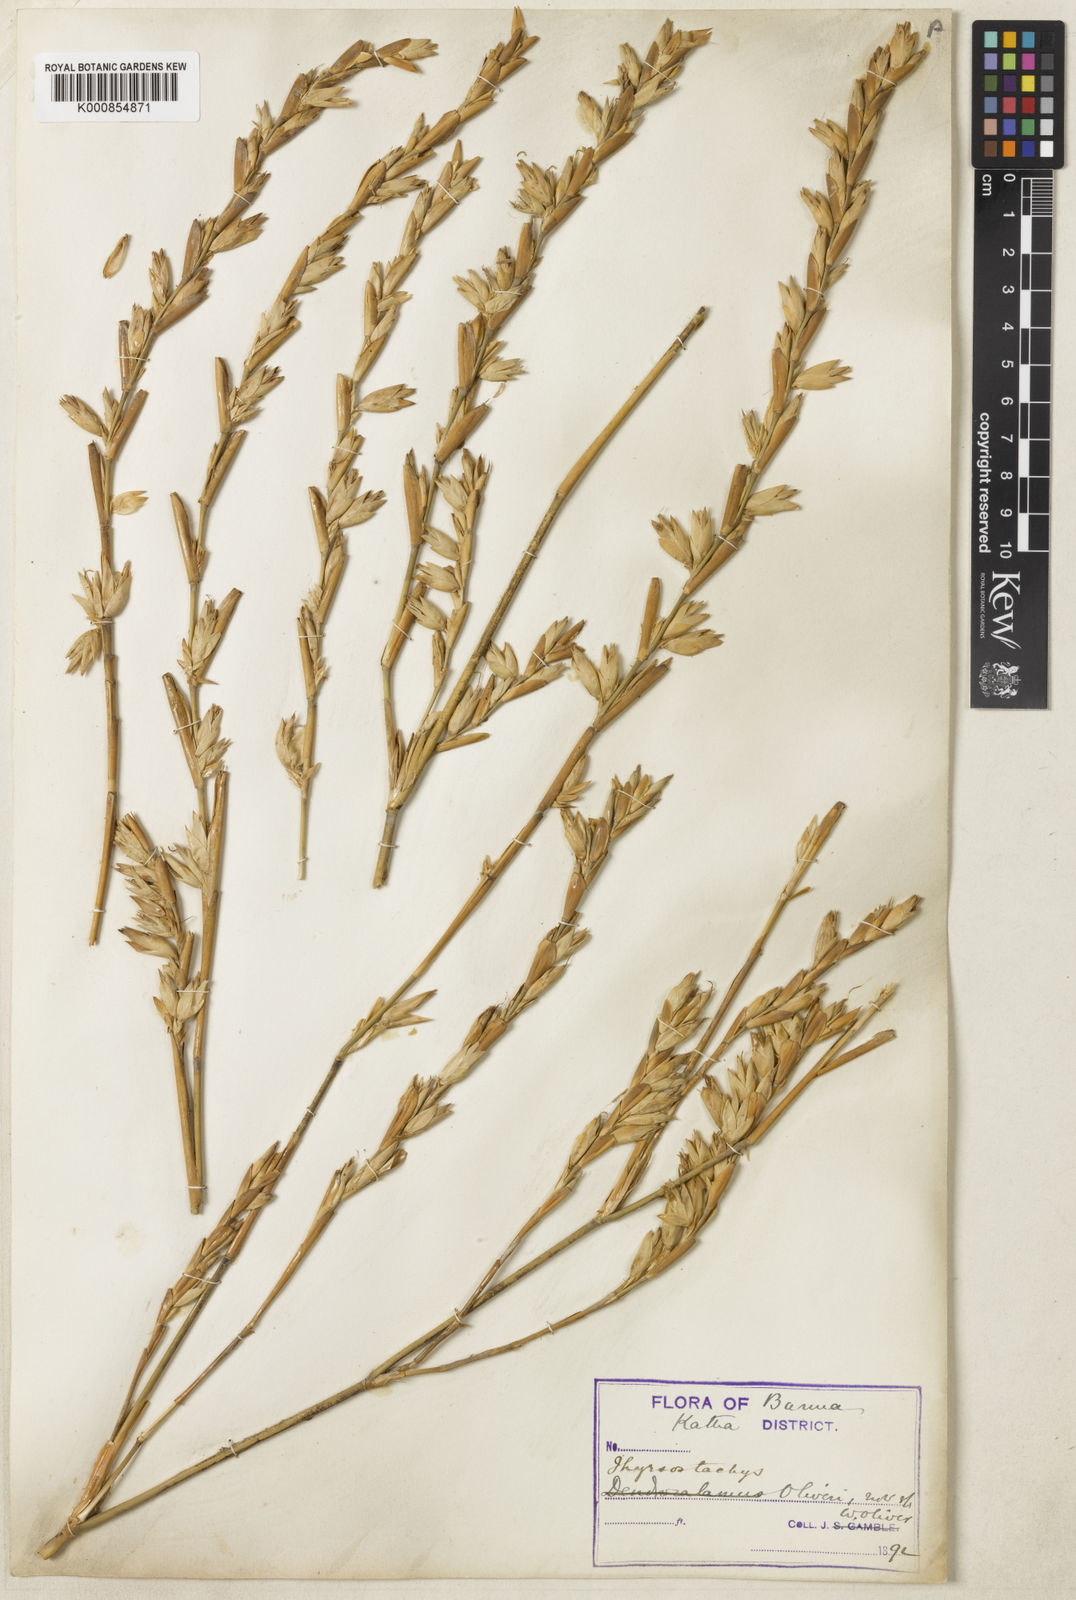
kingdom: Plantae
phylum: Tracheophyta
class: Liliopsida
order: Poales
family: Poaceae
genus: Thyrsostachys
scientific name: Thyrsostachys oliveri
